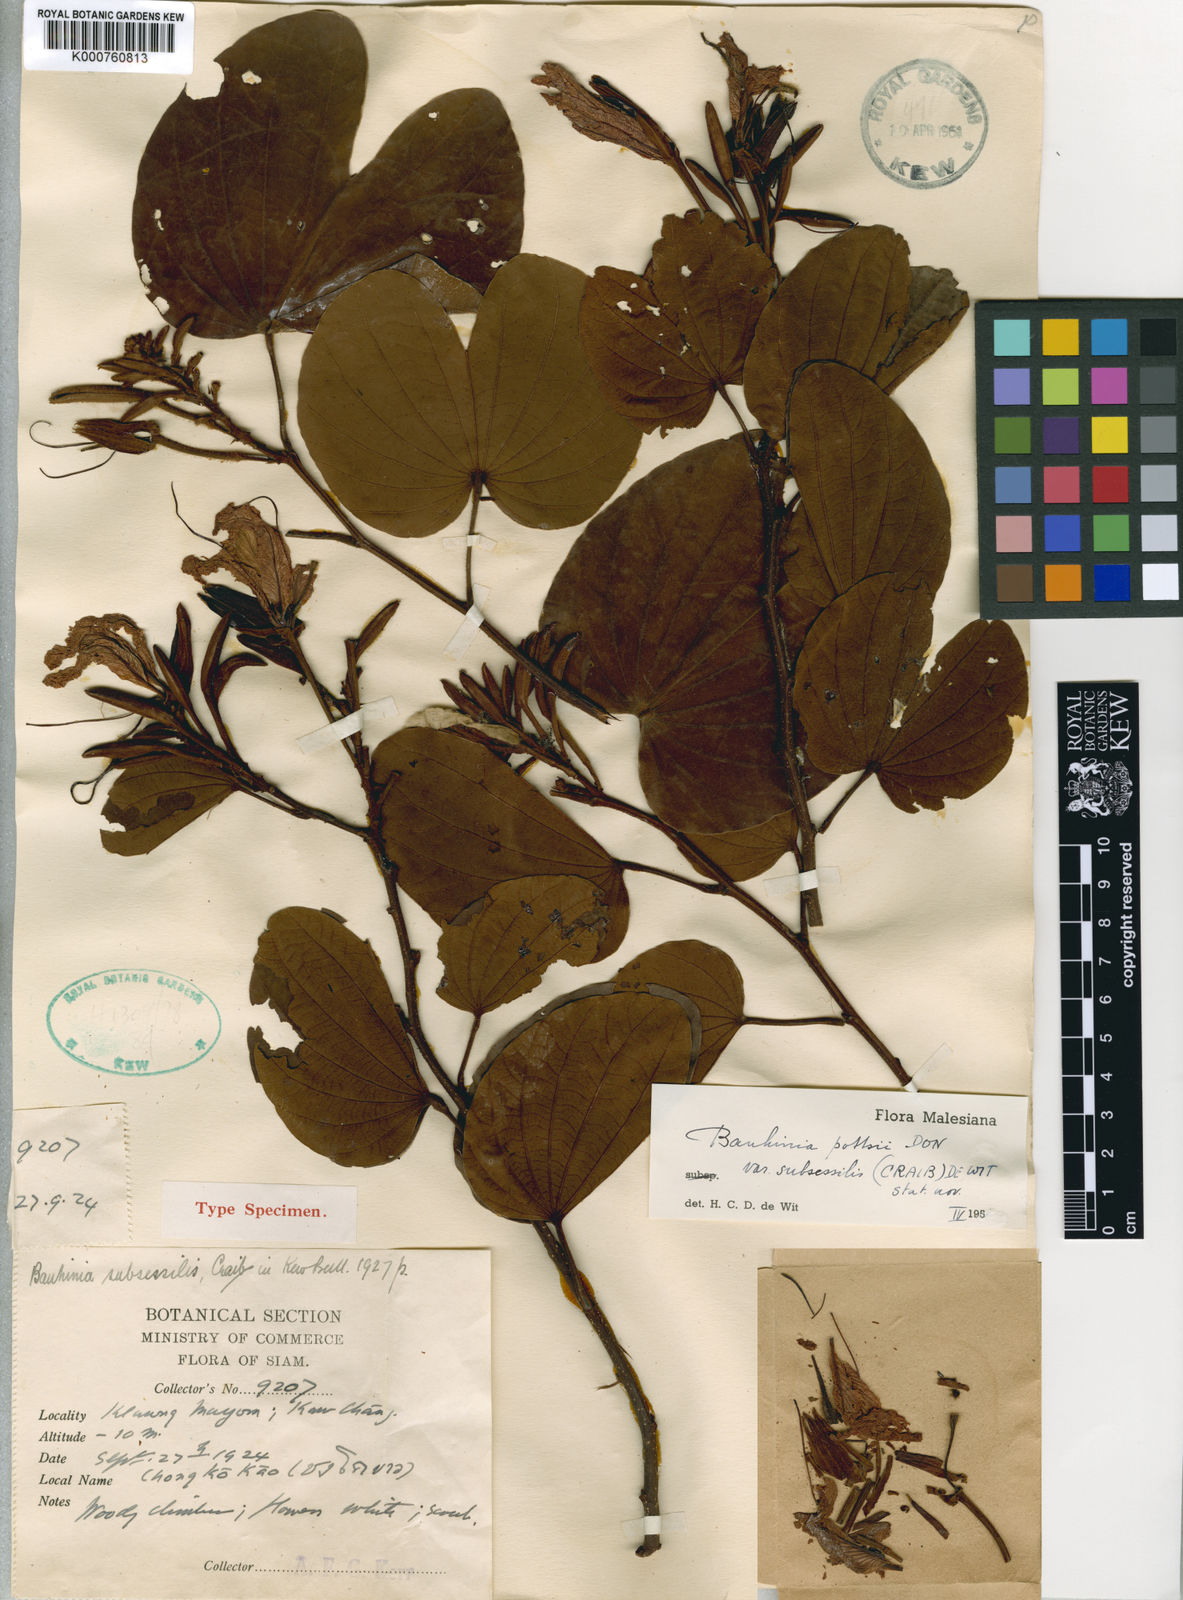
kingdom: Plantae
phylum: Tracheophyta
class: Magnoliopsida
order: Fabales
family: Fabaceae
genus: Bauhinia
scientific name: Bauhinia pottsii
